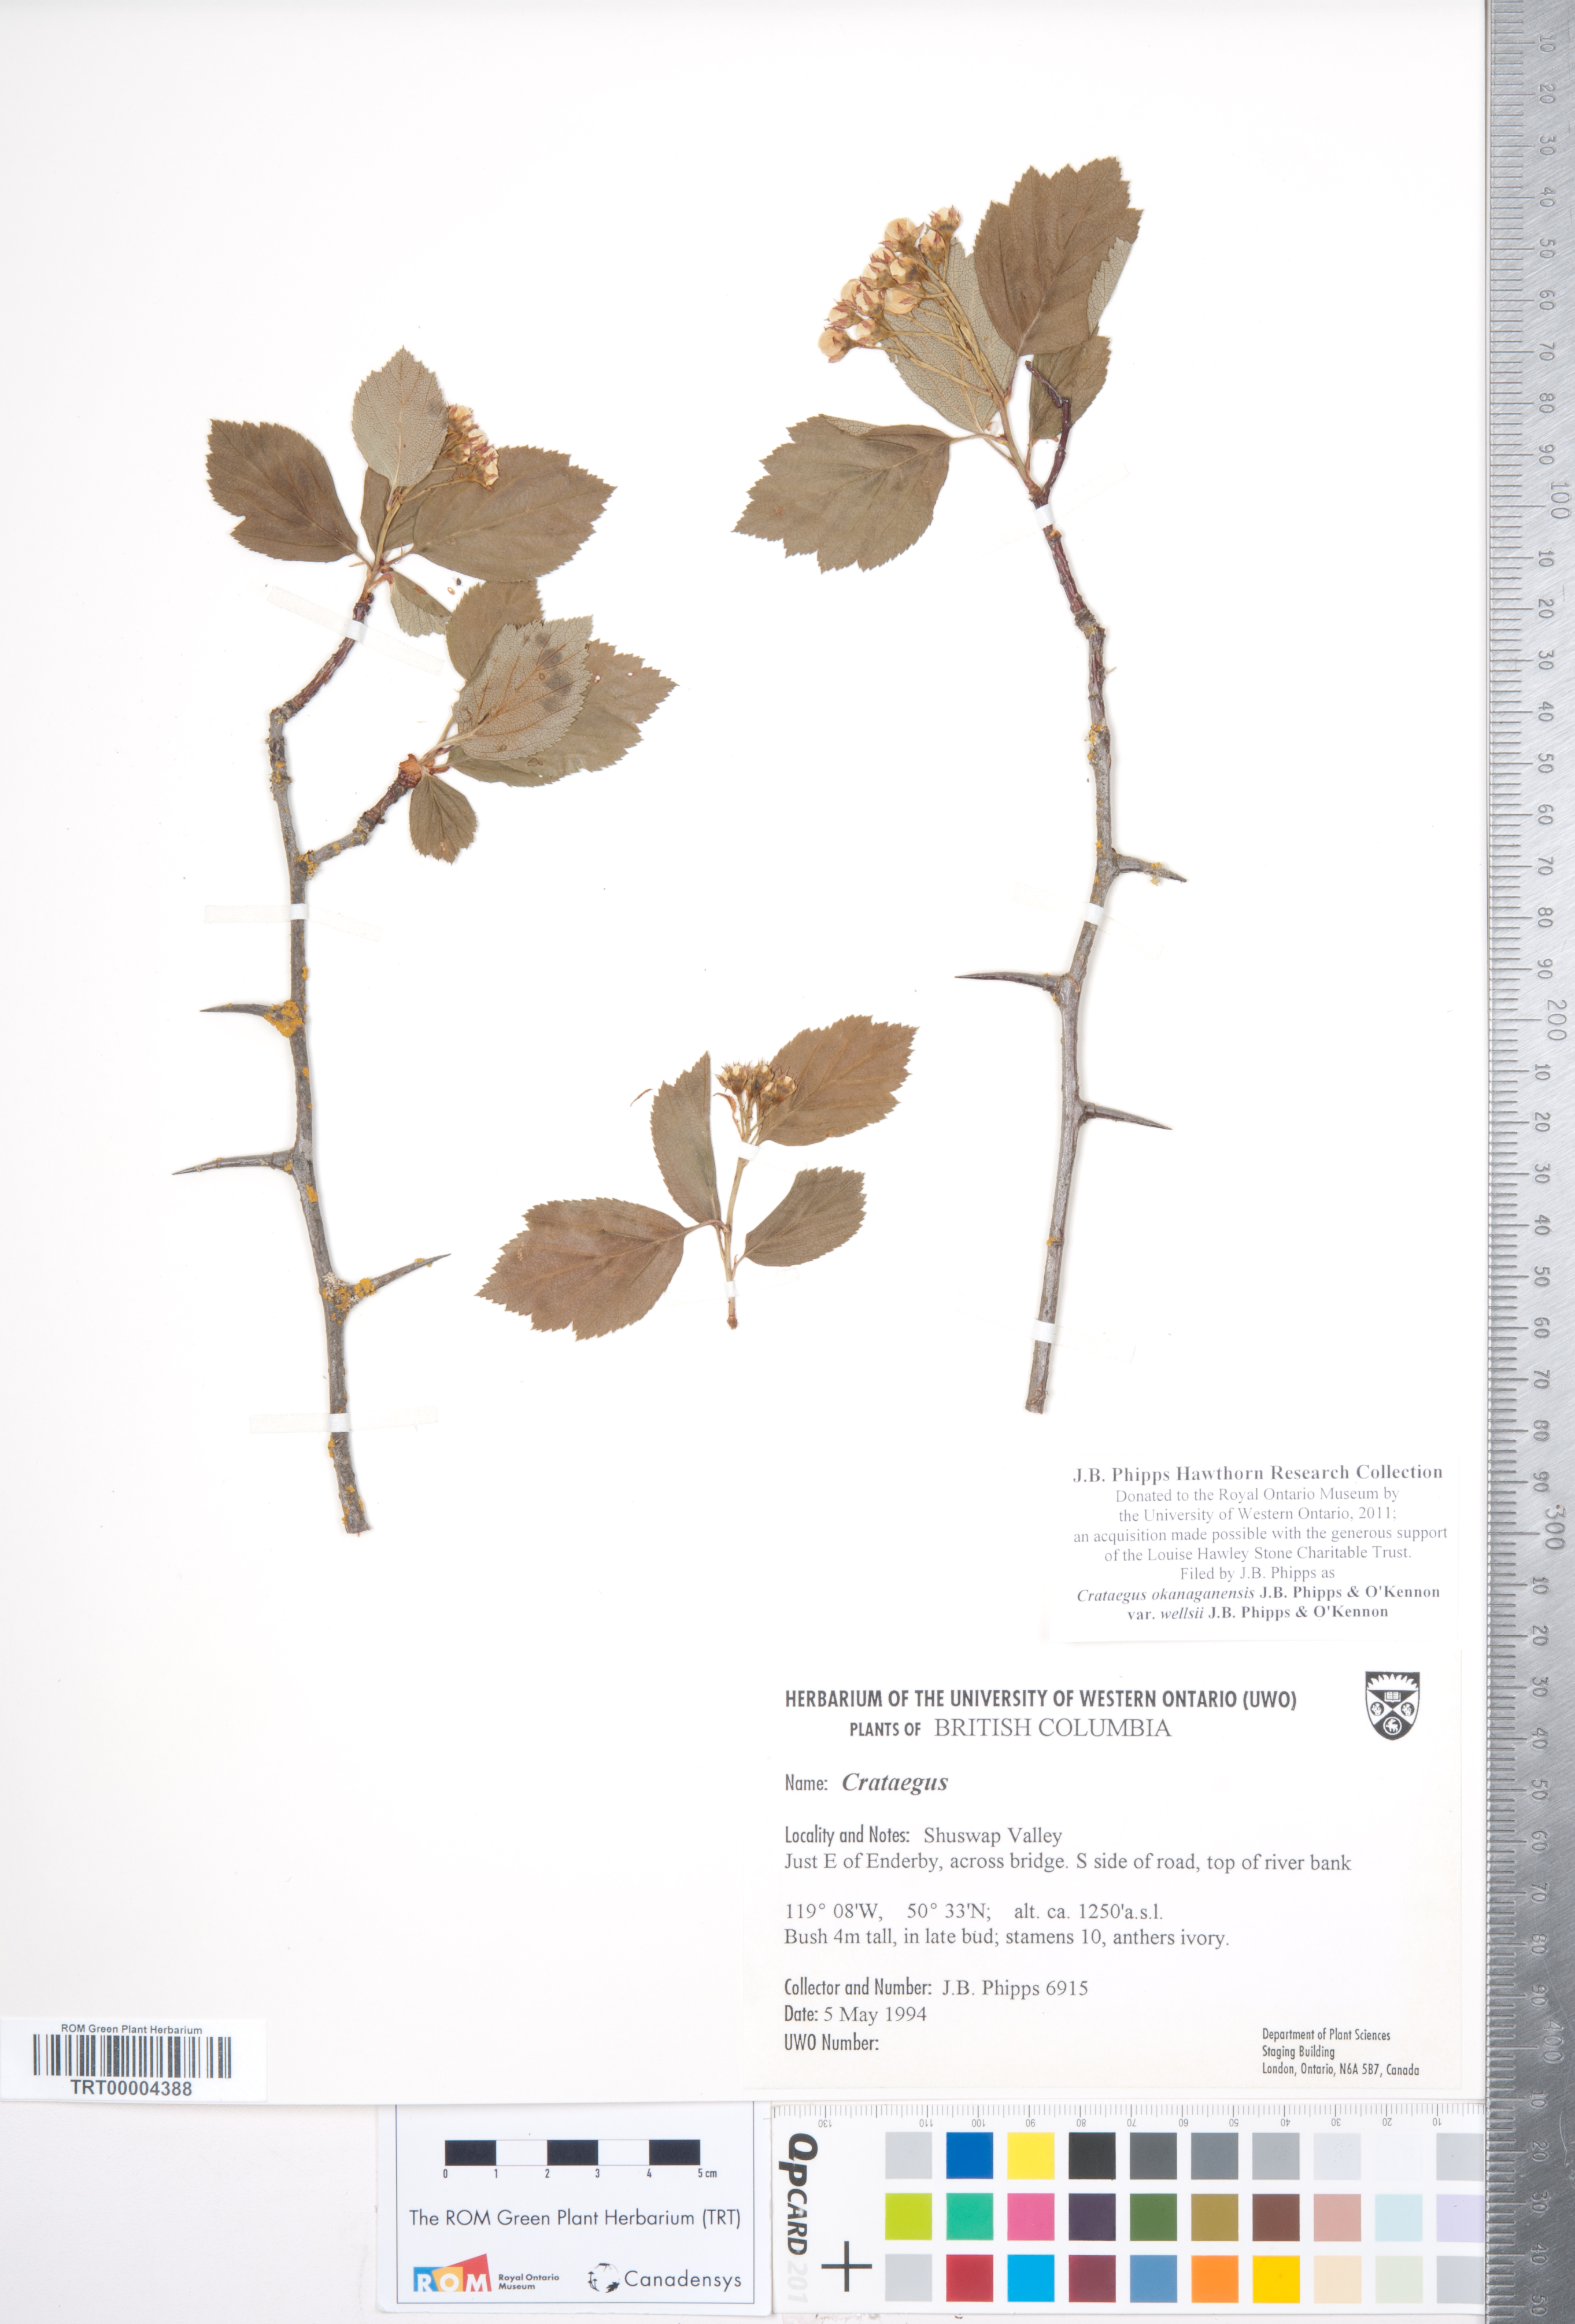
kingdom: Plantae
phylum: Tracheophyta
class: Magnoliopsida
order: Rosales
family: Rosaceae
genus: Crataegus
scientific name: Crataegus okanaganensis
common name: Okanagan valley hawthorn
